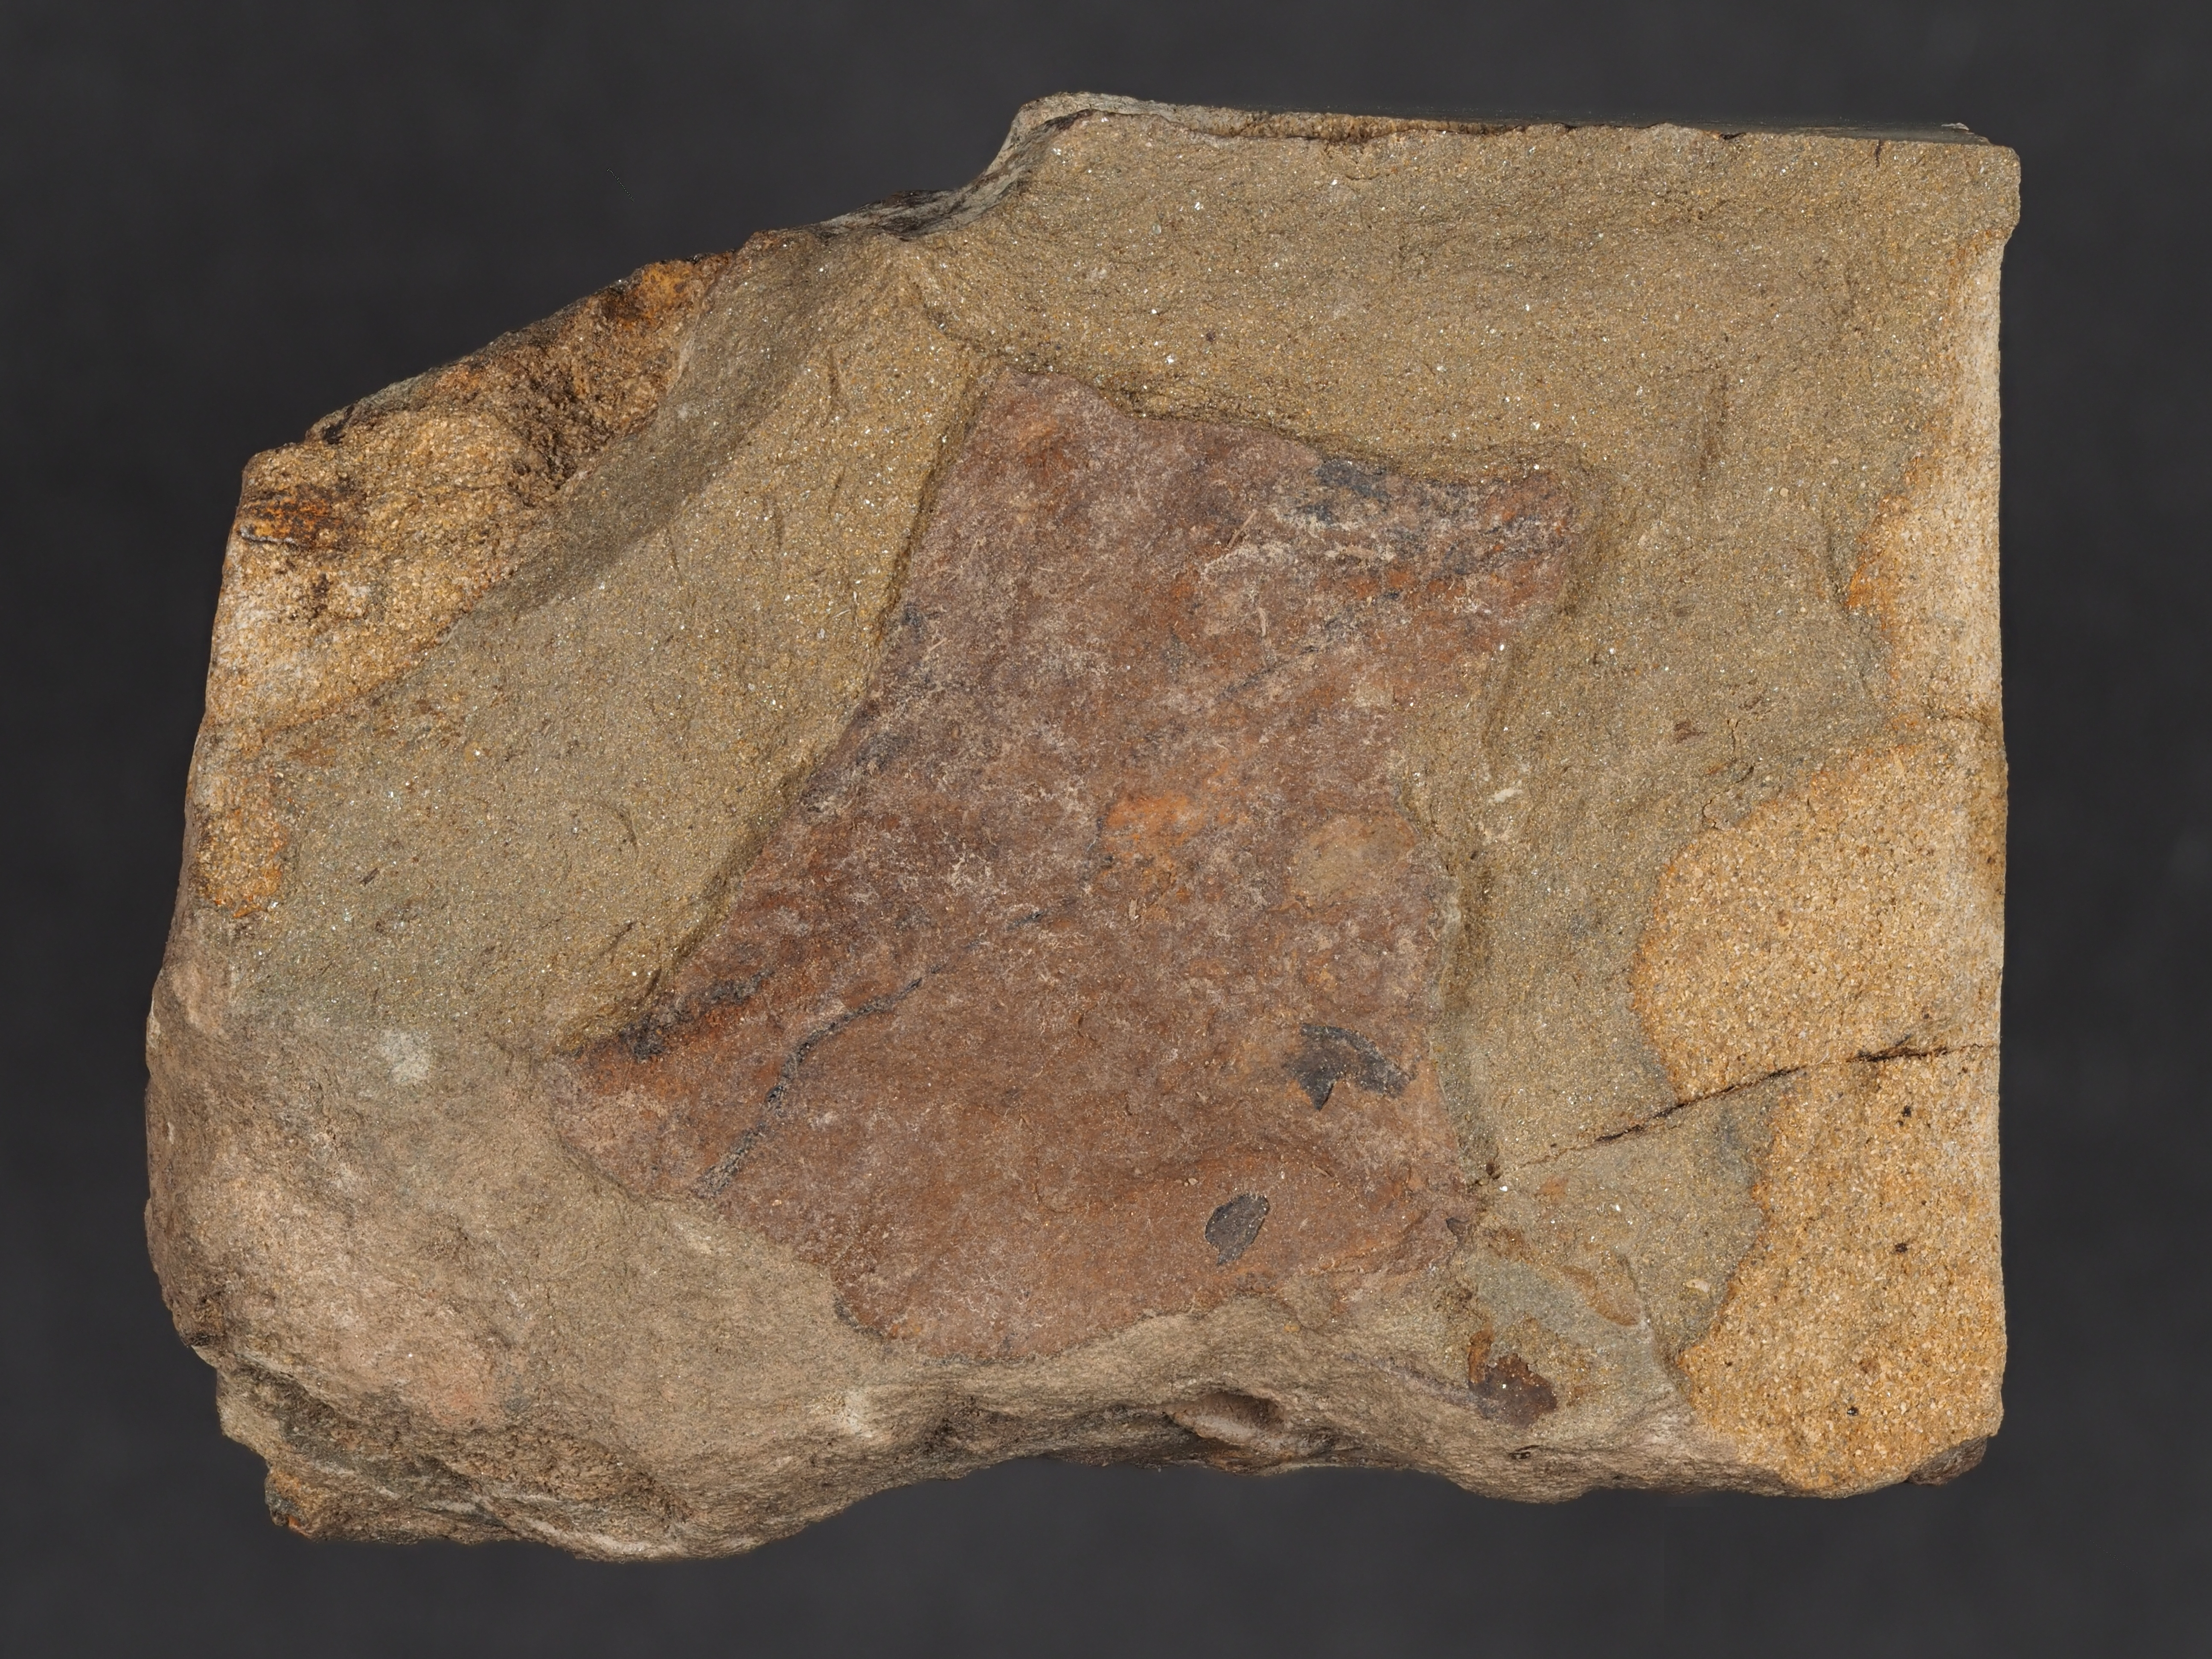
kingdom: Animalia
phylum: Brachiopoda
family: Leptostrophiidae
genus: Leptostrophiella
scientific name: Leptostrophiella
